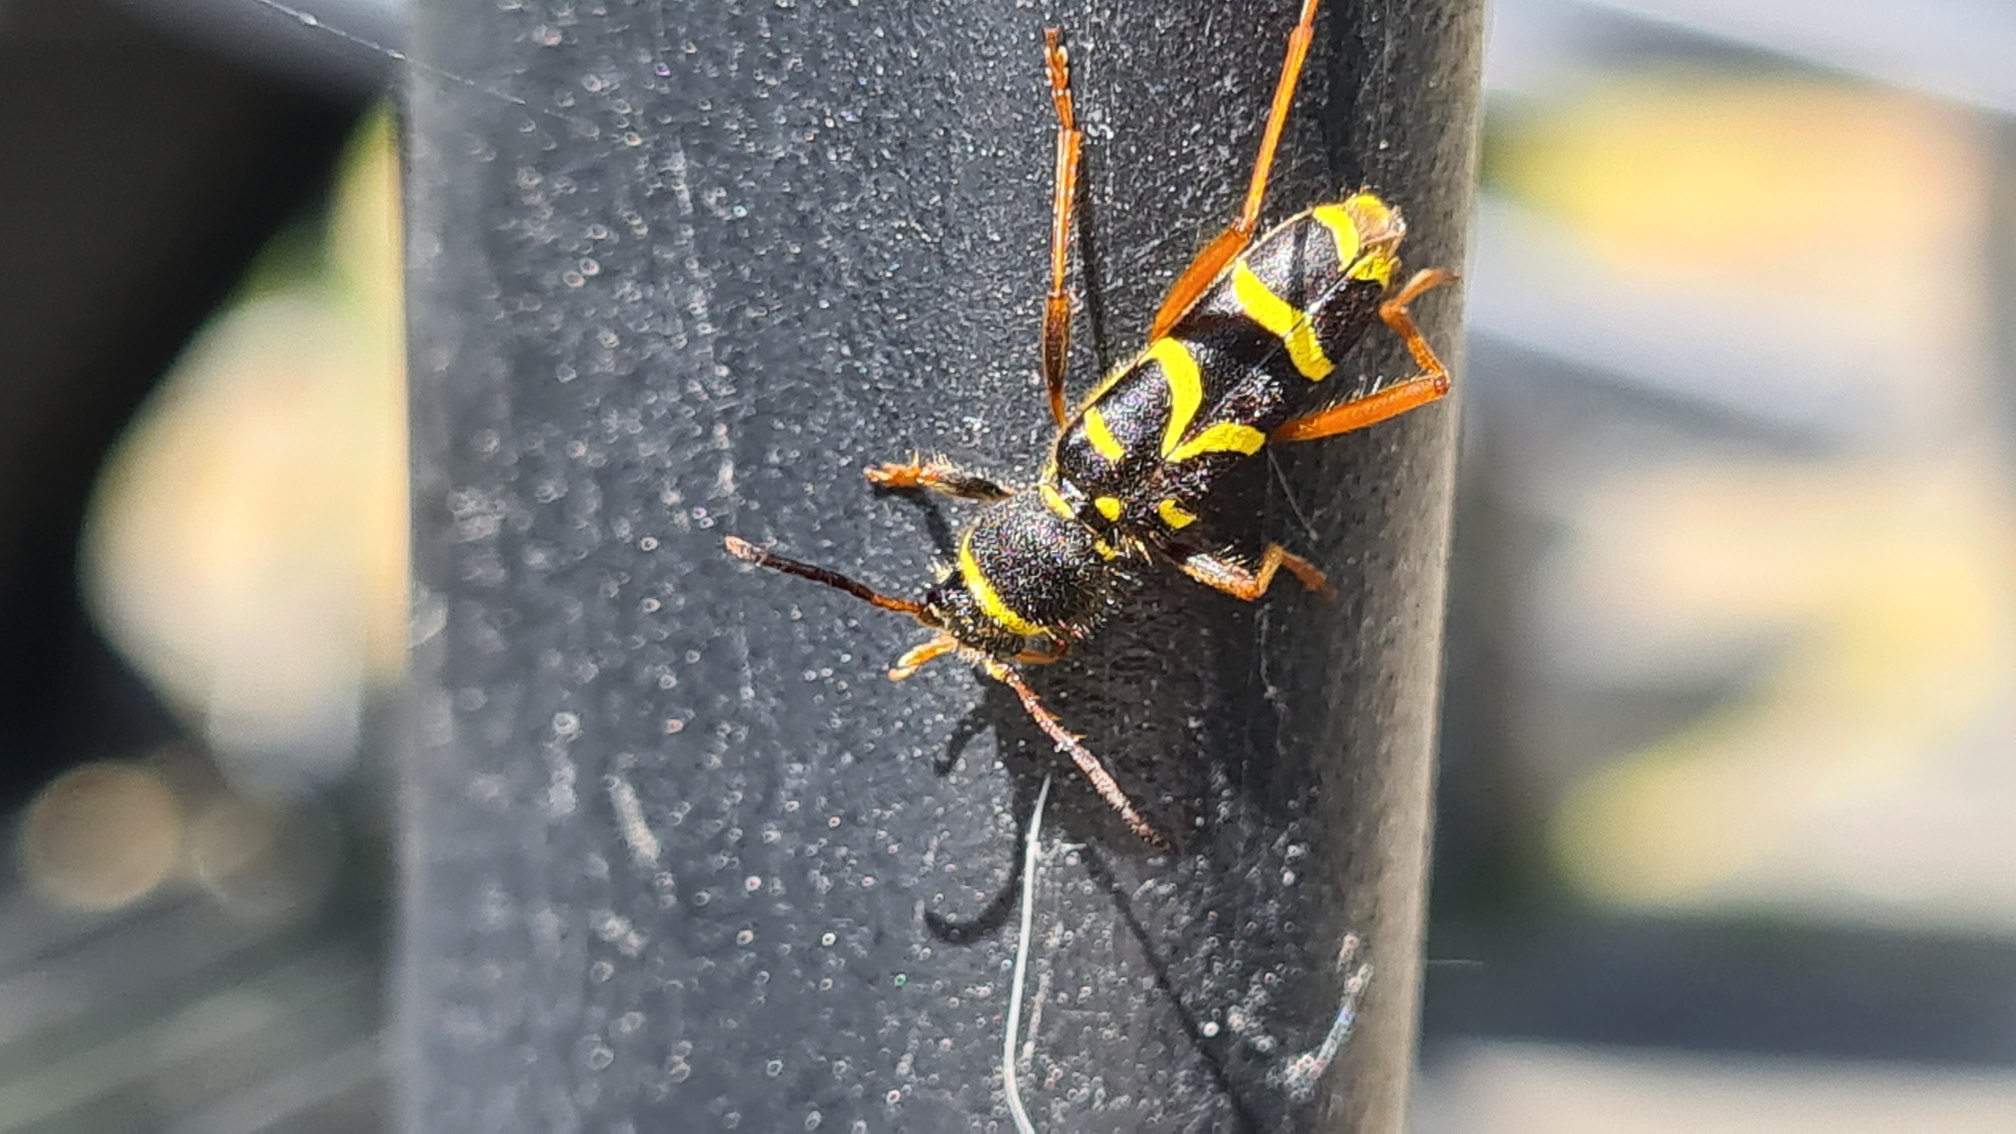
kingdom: Animalia
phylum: Arthropoda
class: Insecta
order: Coleoptera
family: Cerambycidae
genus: Clytus
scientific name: Clytus arietis
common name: Lille hvepsebuk
